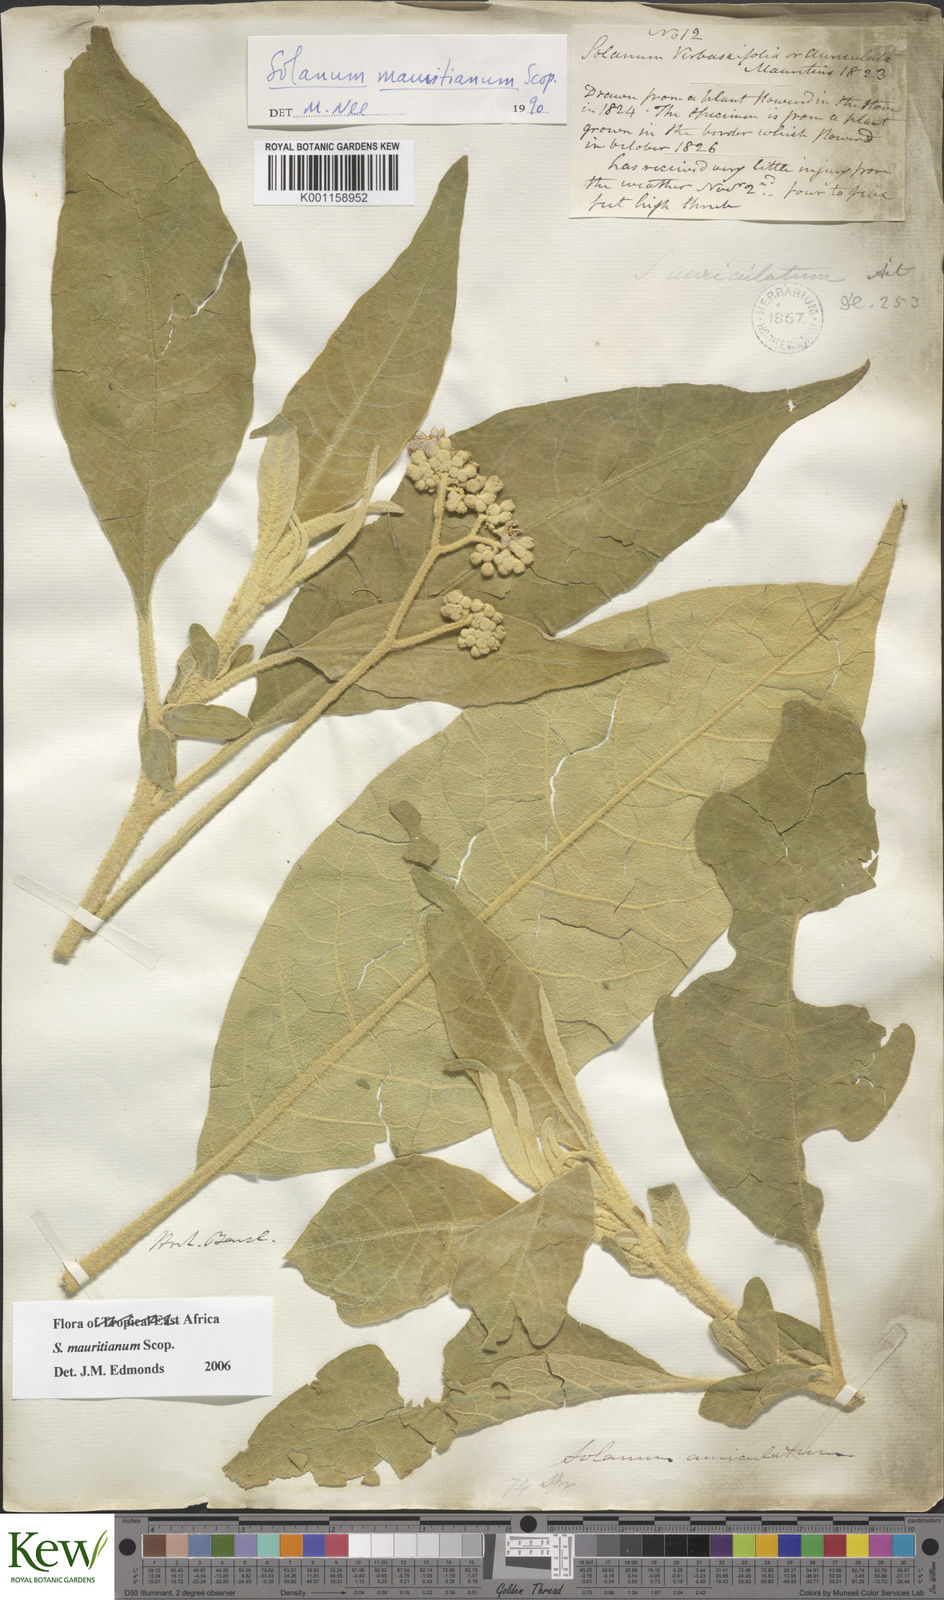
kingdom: Plantae
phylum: Tracheophyta
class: Magnoliopsida
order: Solanales
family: Solanaceae
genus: Solanum
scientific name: Solanum mauritianum
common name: Earleaf nightshade
